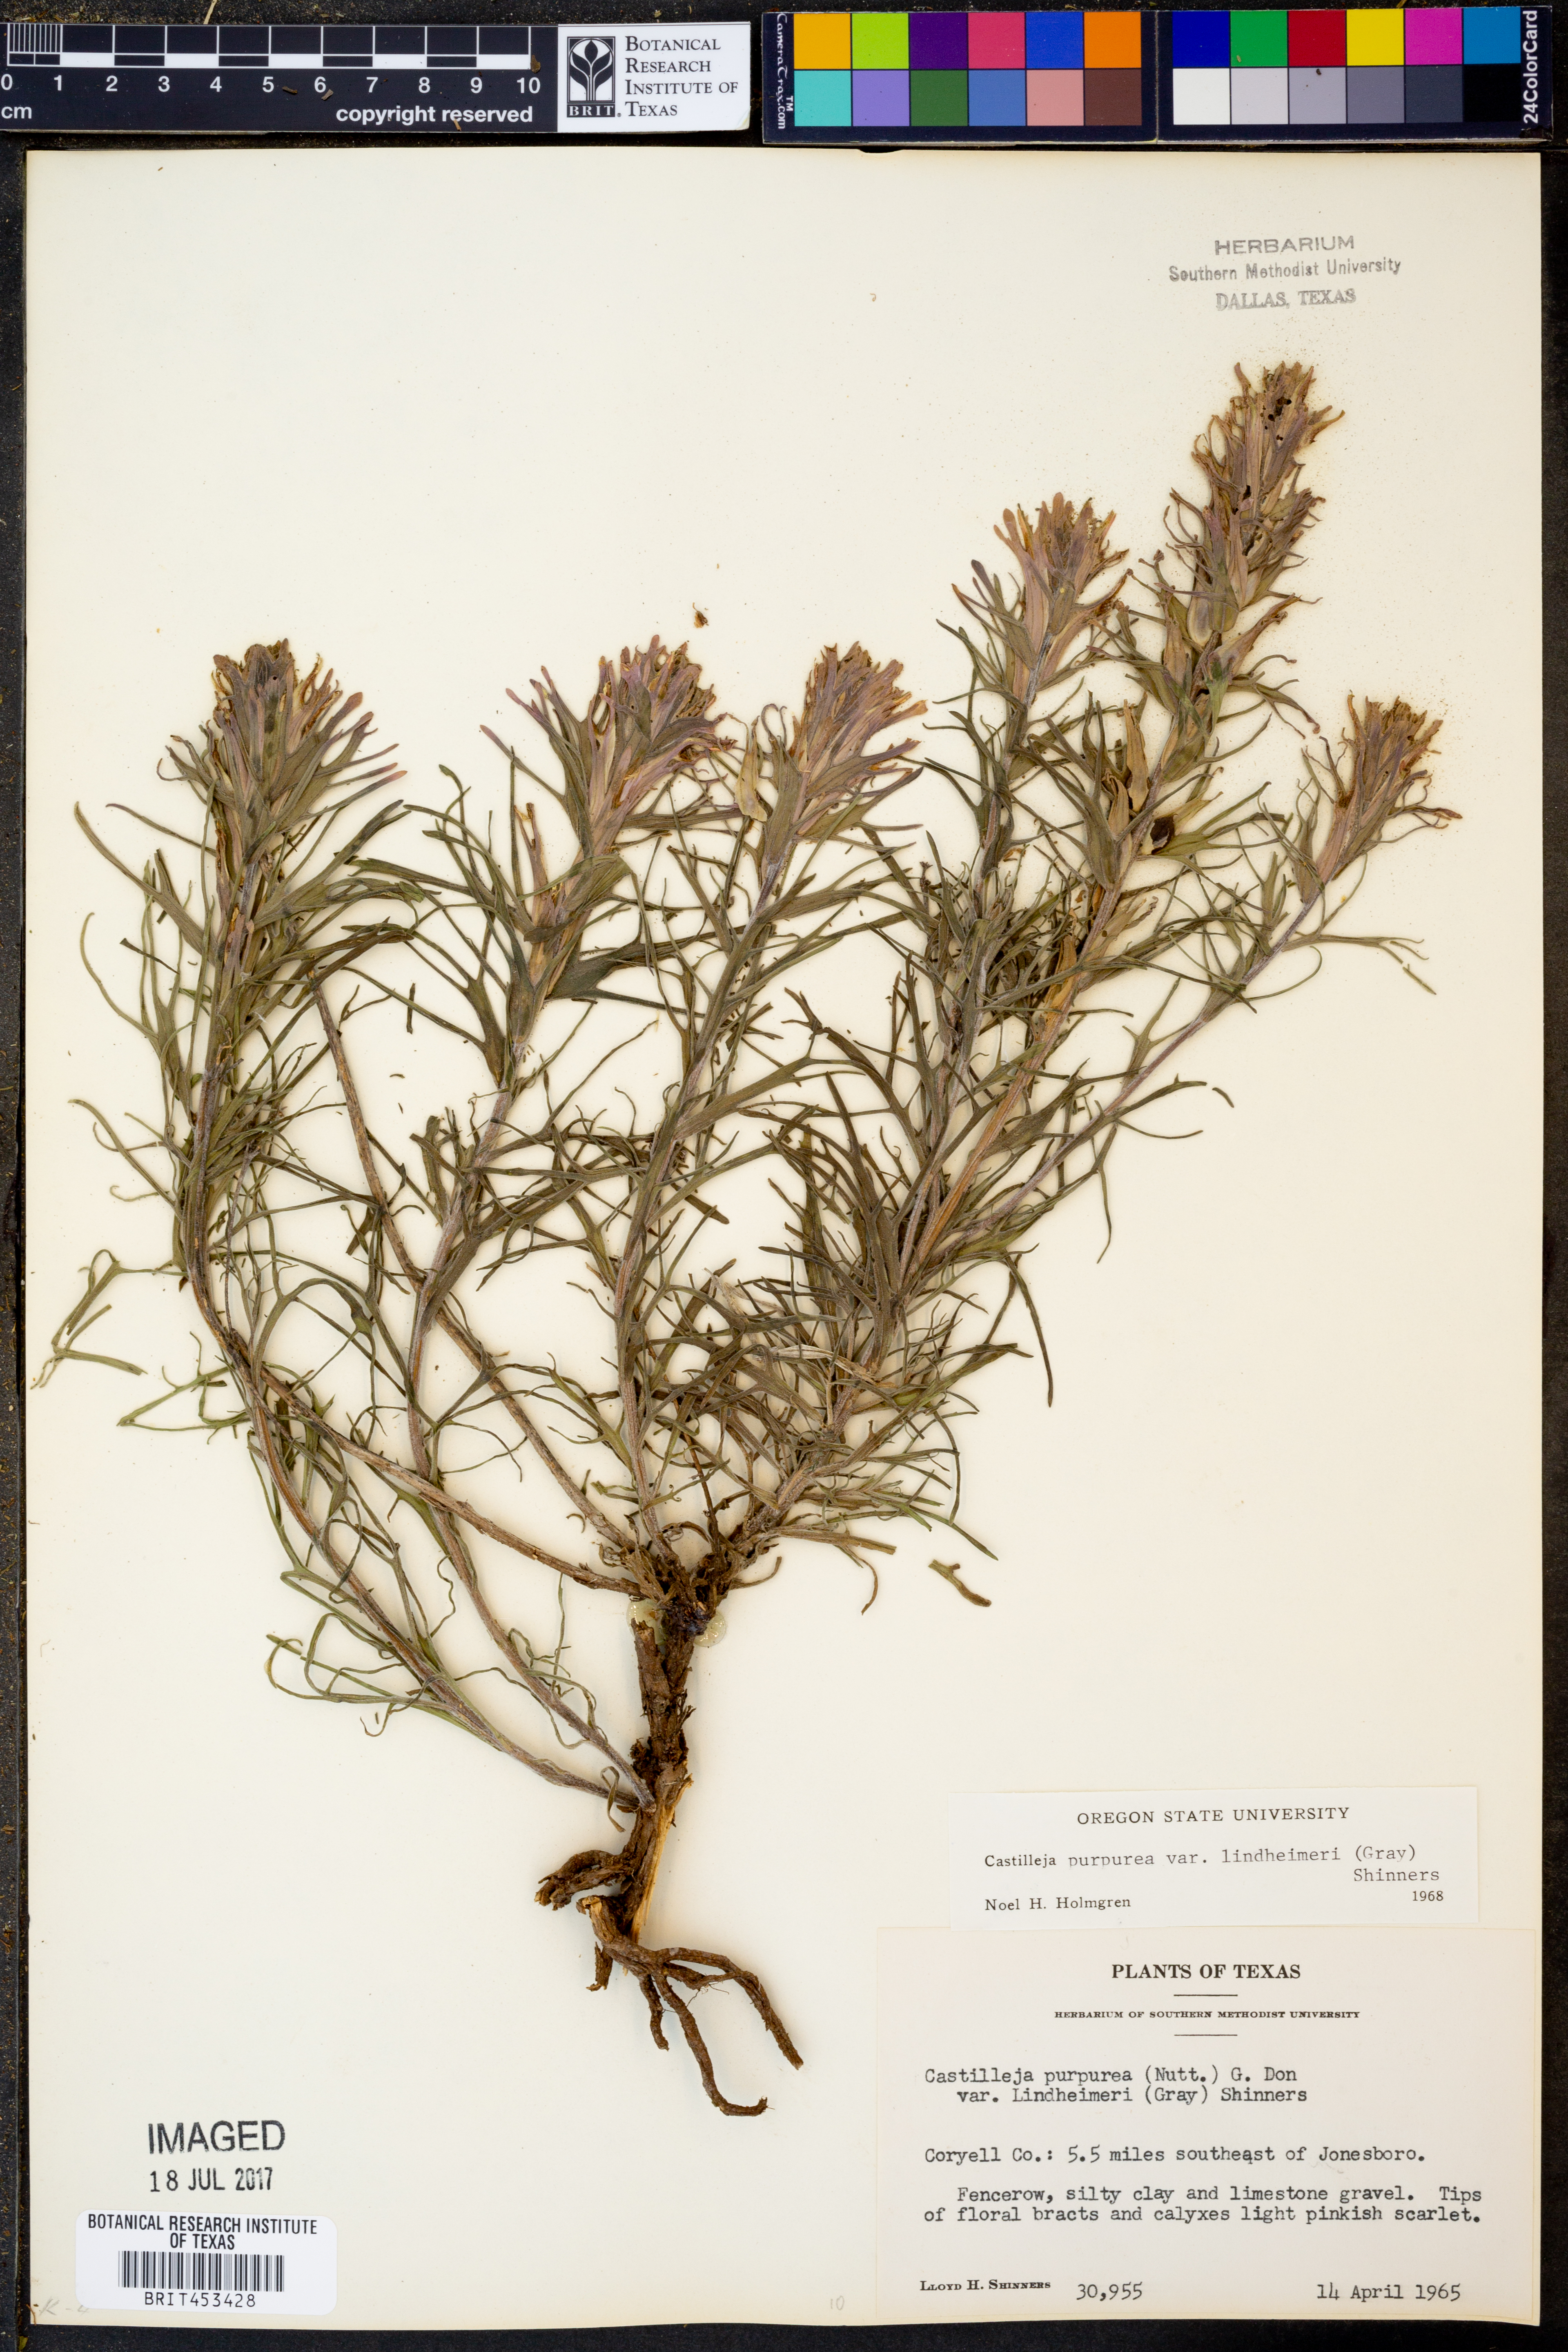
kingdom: Plantae
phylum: Tracheophyta
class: Magnoliopsida
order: Lamiales
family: Orobanchaceae
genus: Castilleja
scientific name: Castilleja lindheimeri
